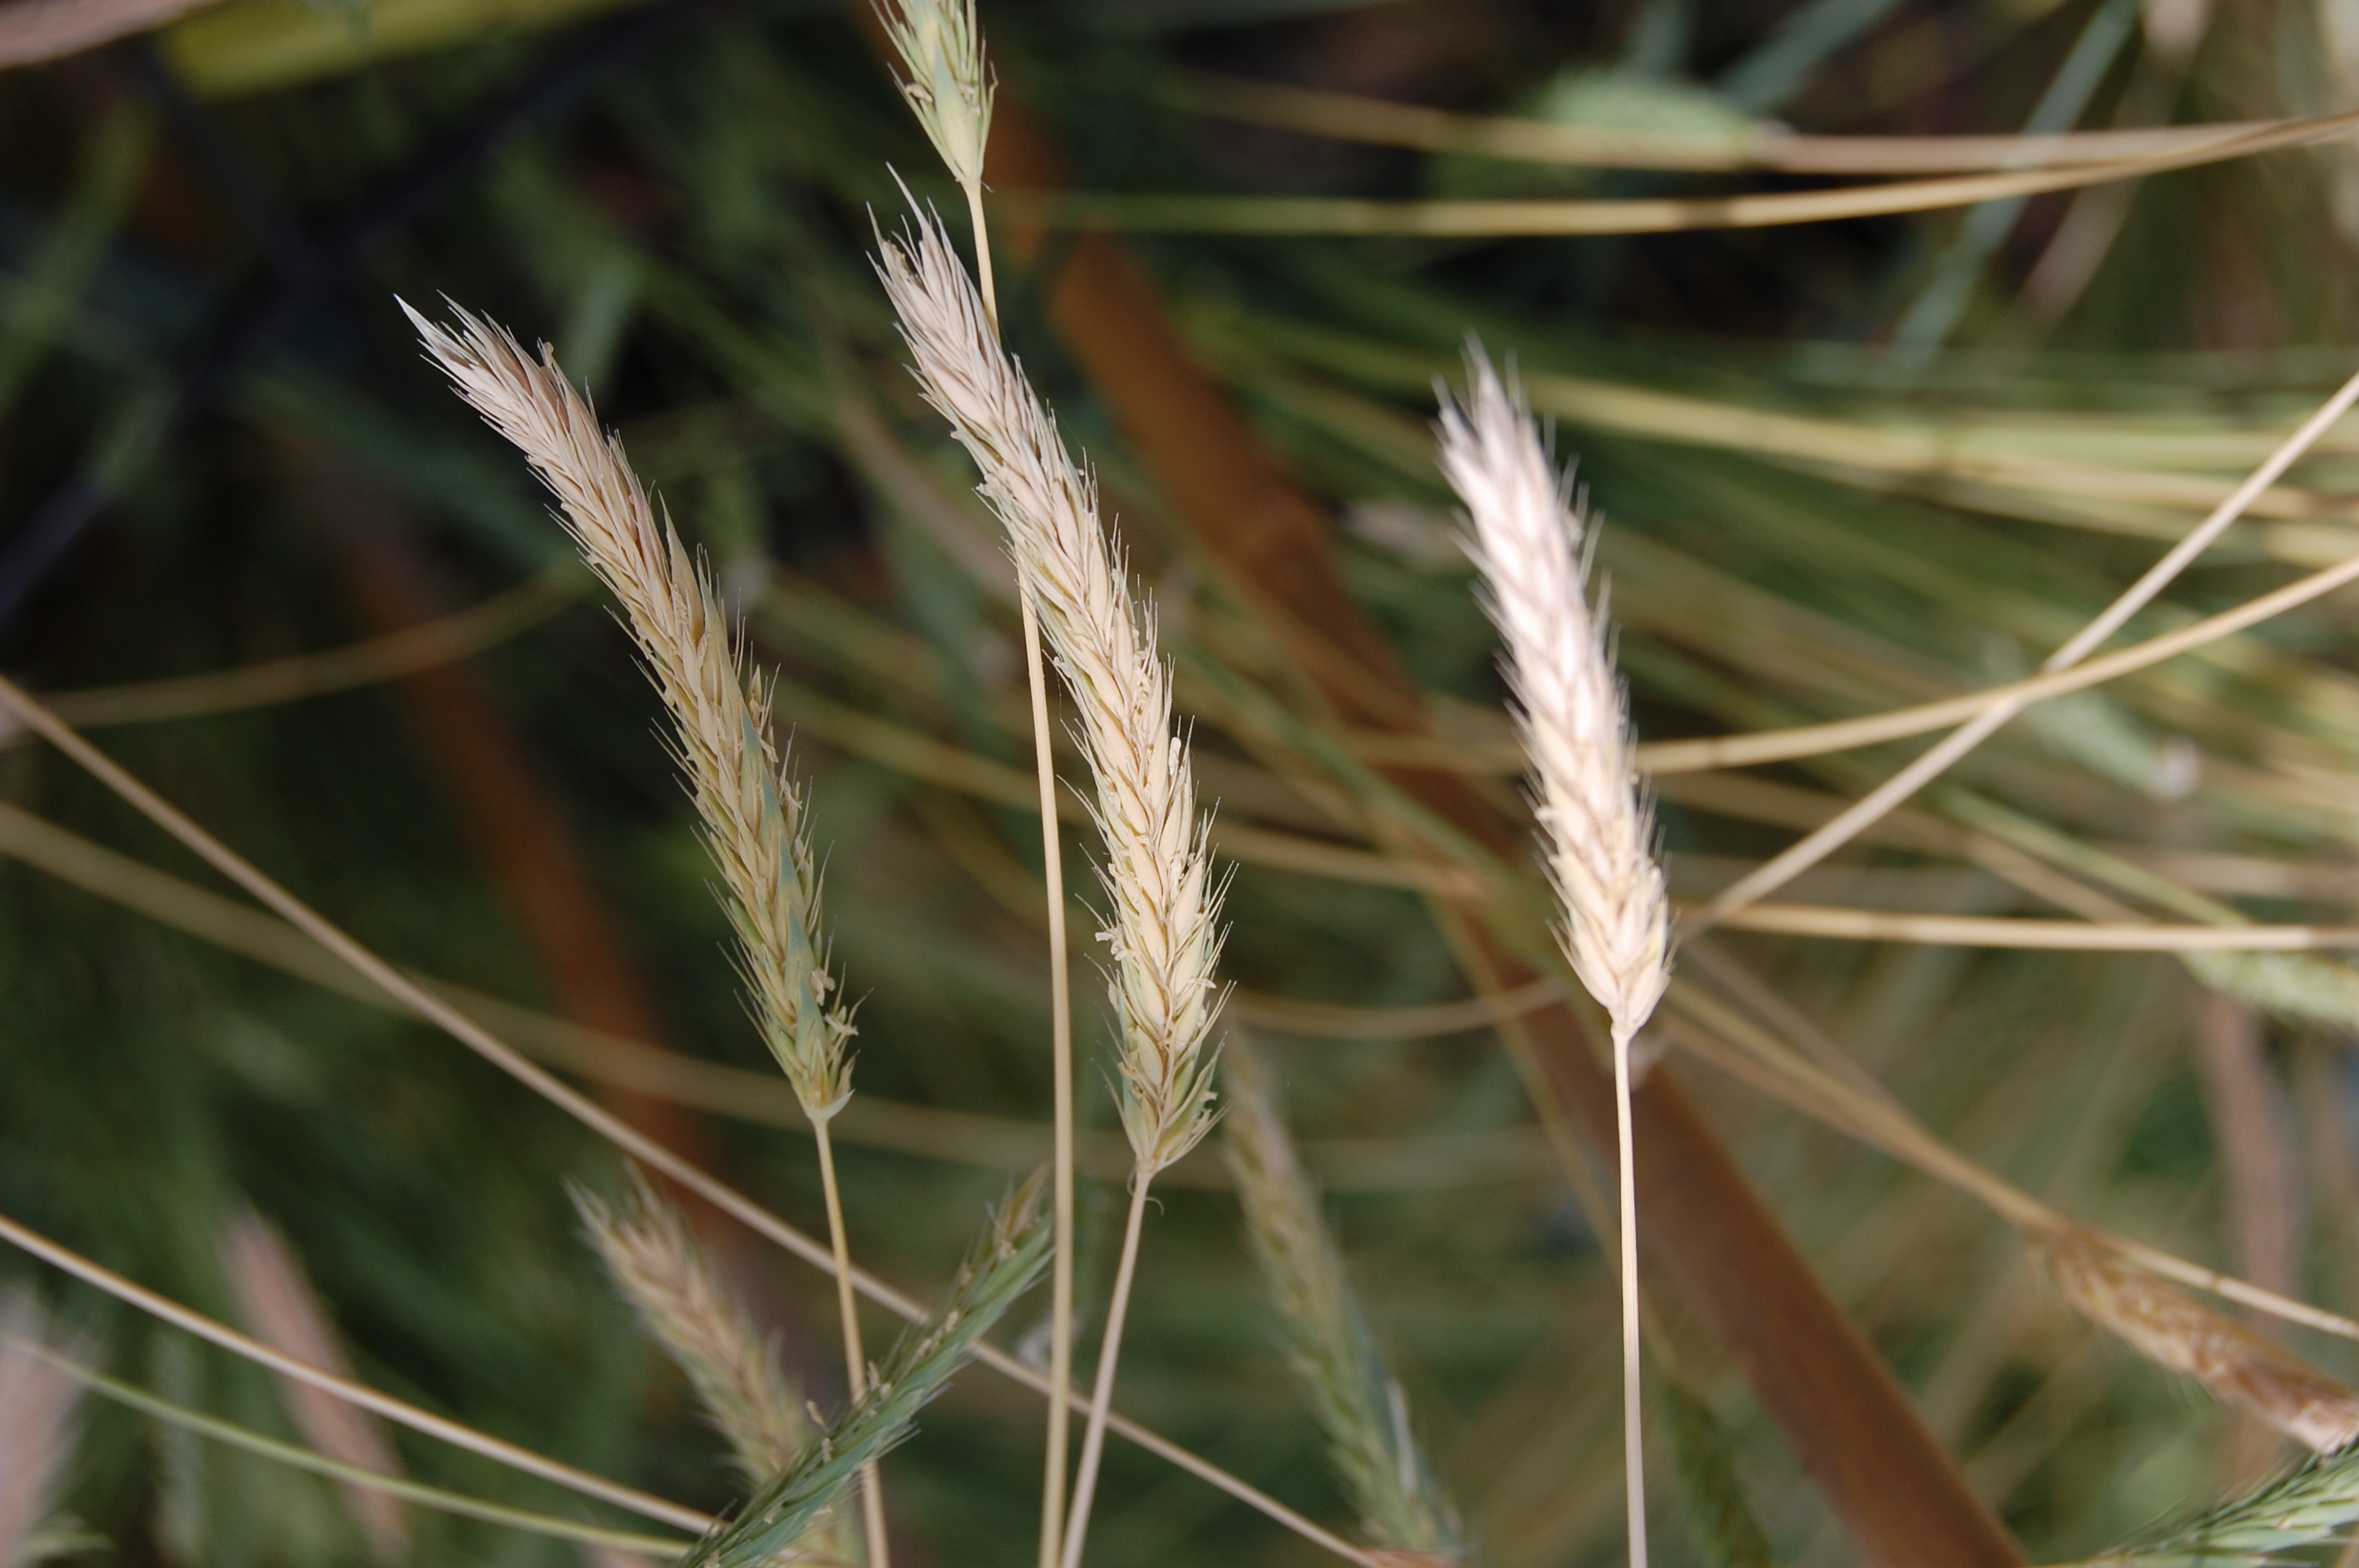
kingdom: Plantae
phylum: Tracheophyta
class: Liliopsida
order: Poales
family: Poaceae
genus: Hordeum
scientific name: Hordeum muticum
